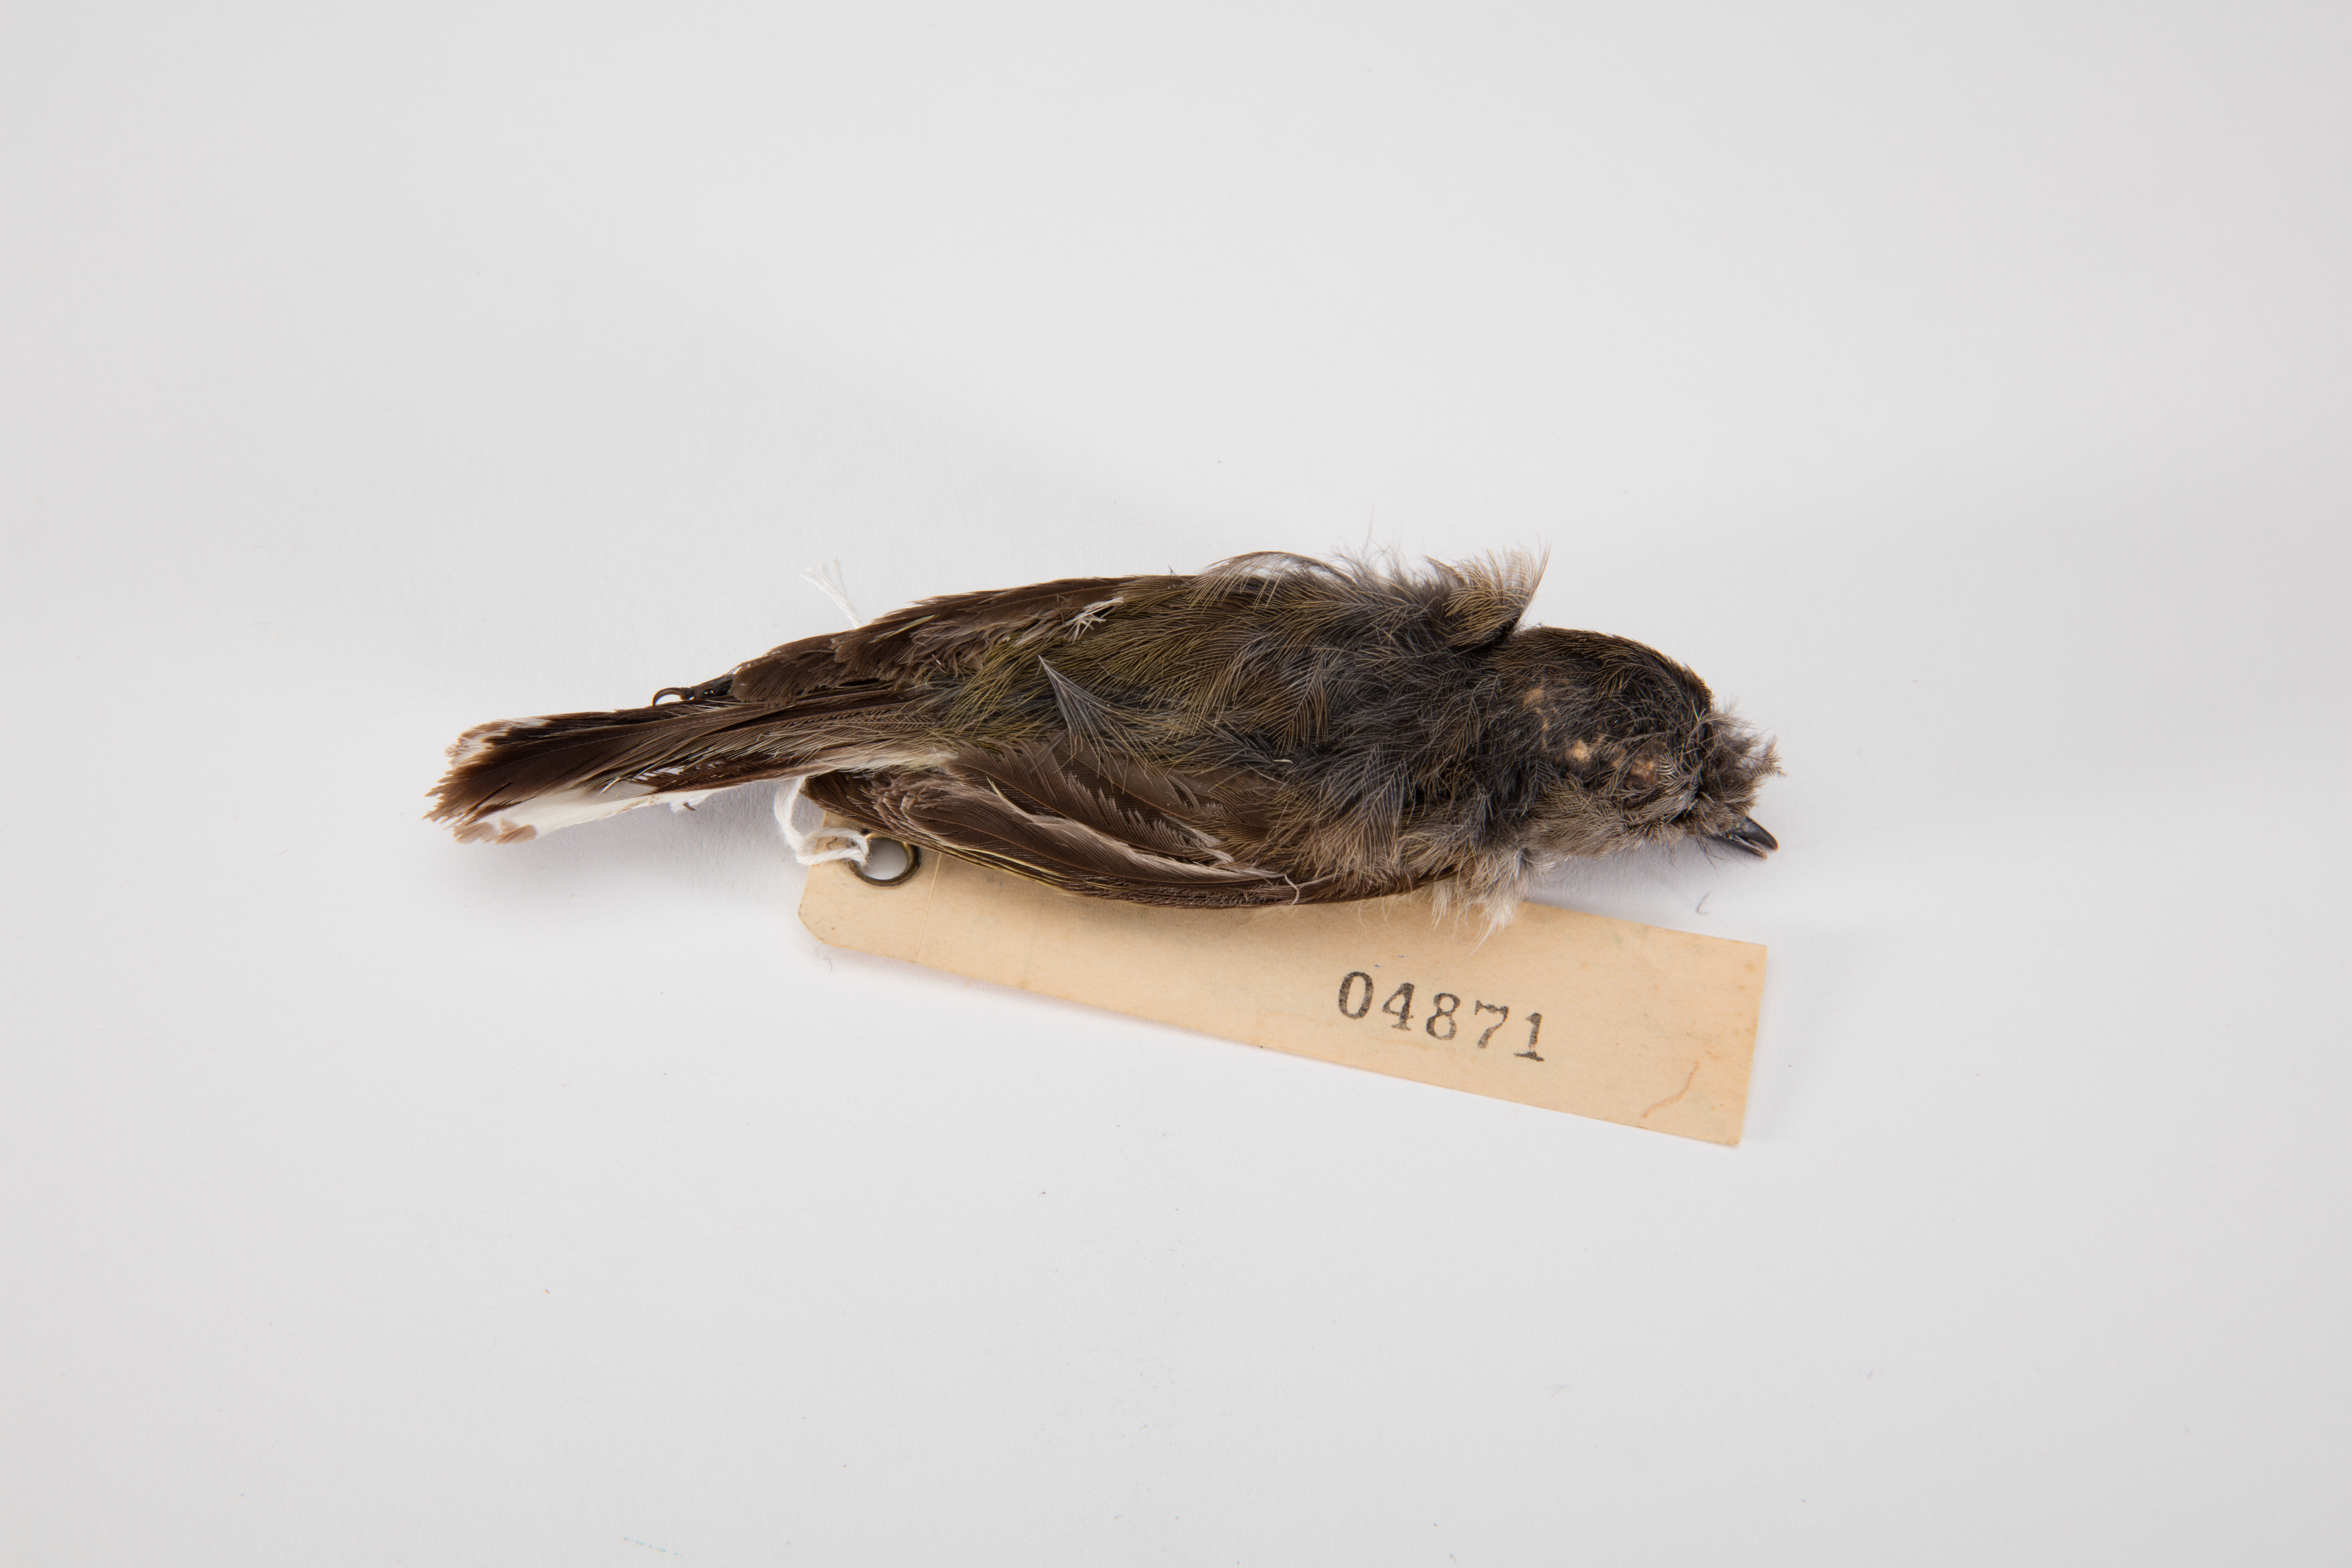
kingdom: Animalia
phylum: Chordata
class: Aves
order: Passeriformes
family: Acanthizidae
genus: Gerygone
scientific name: Gerygone igata
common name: Grey gerygone
